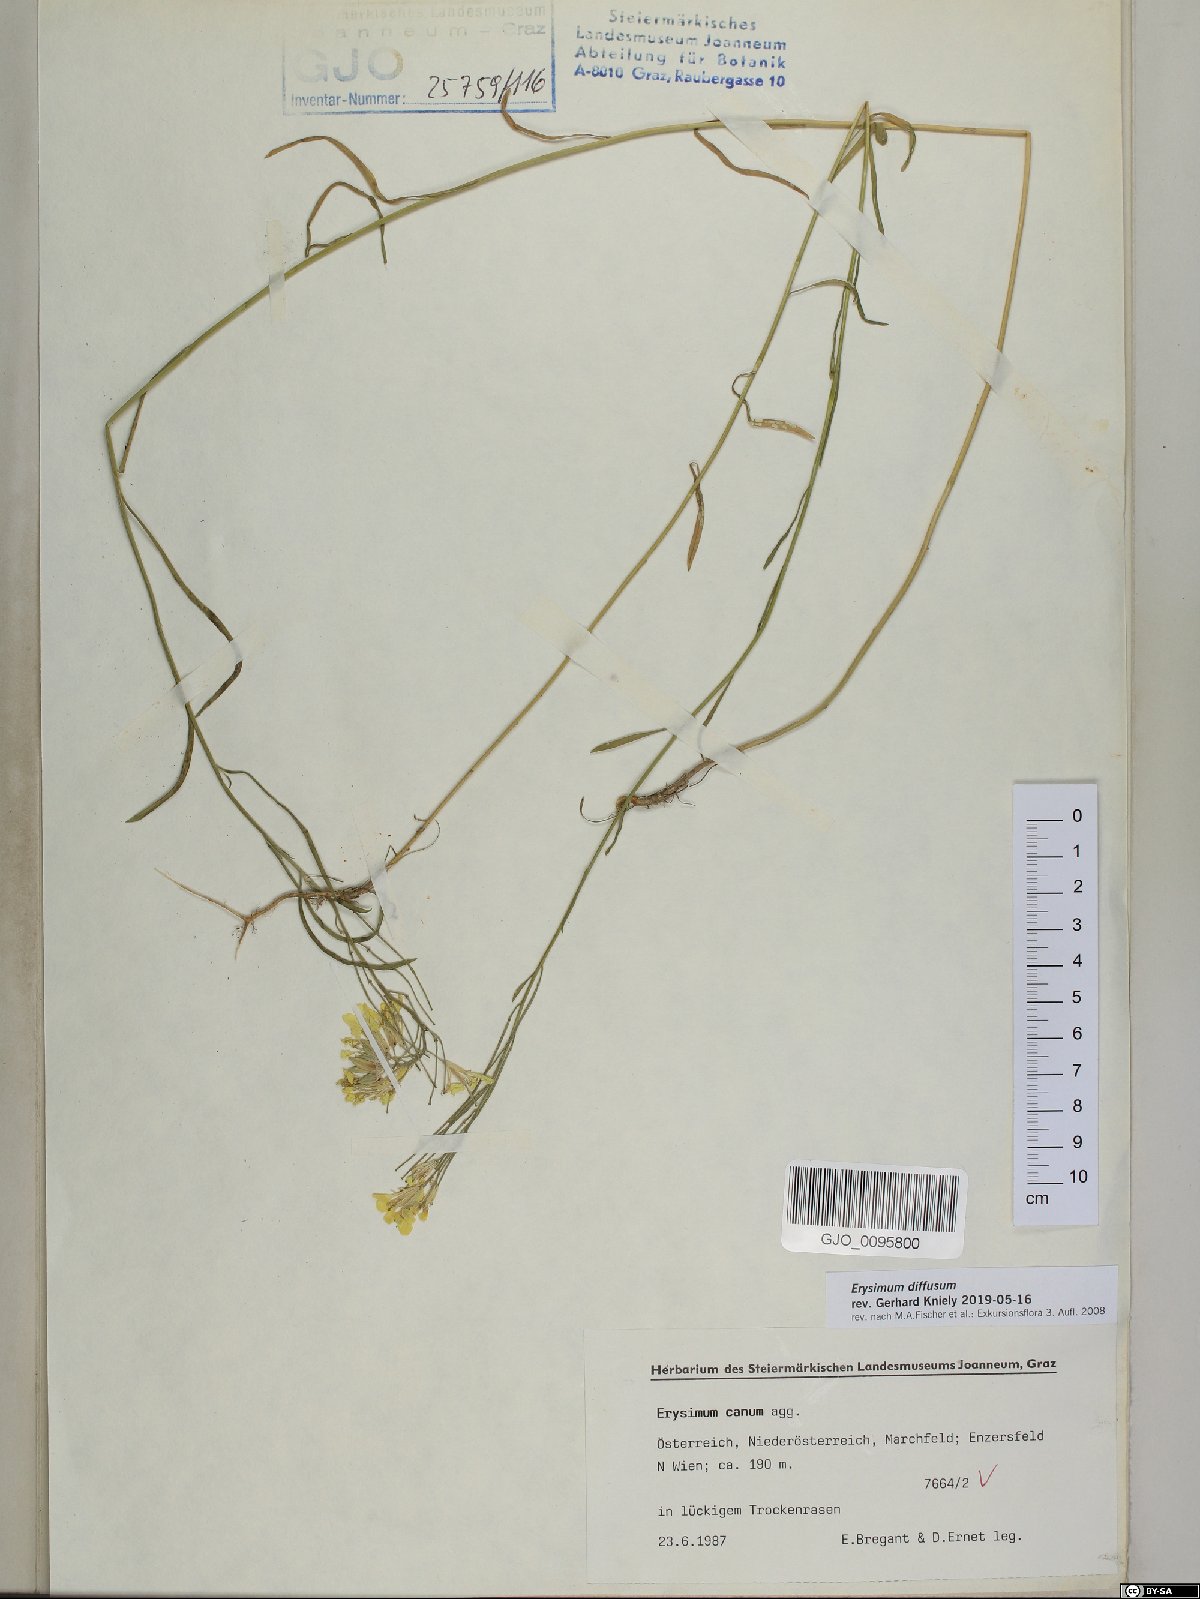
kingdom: Plantae
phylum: Tracheophyta
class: Magnoliopsida
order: Brassicales
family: Brassicaceae
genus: Erysimum
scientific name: Erysimum diffusum
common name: Diffuse wallflower
